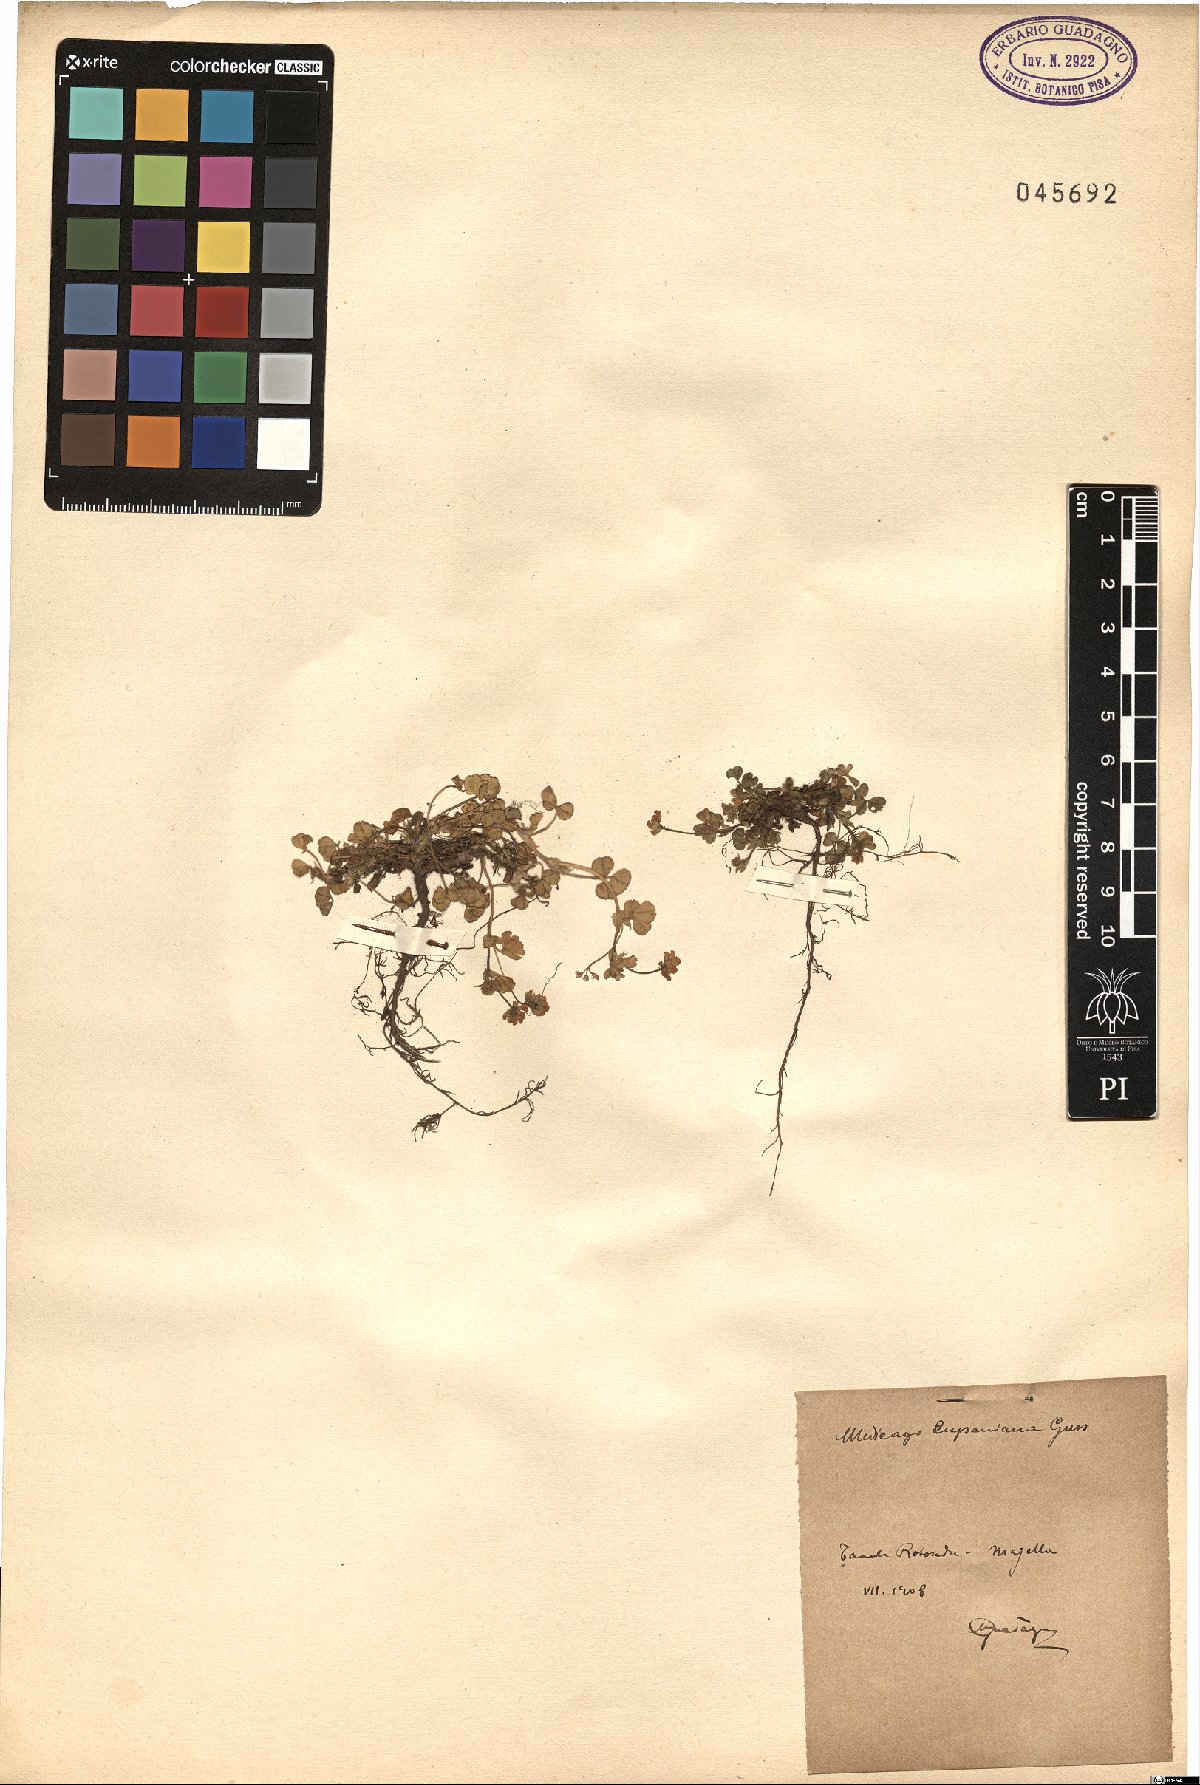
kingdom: Plantae
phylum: Tracheophyta
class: Magnoliopsida
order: Fabales
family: Fabaceae
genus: Medicago
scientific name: Medicago lupulina
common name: Black medick
